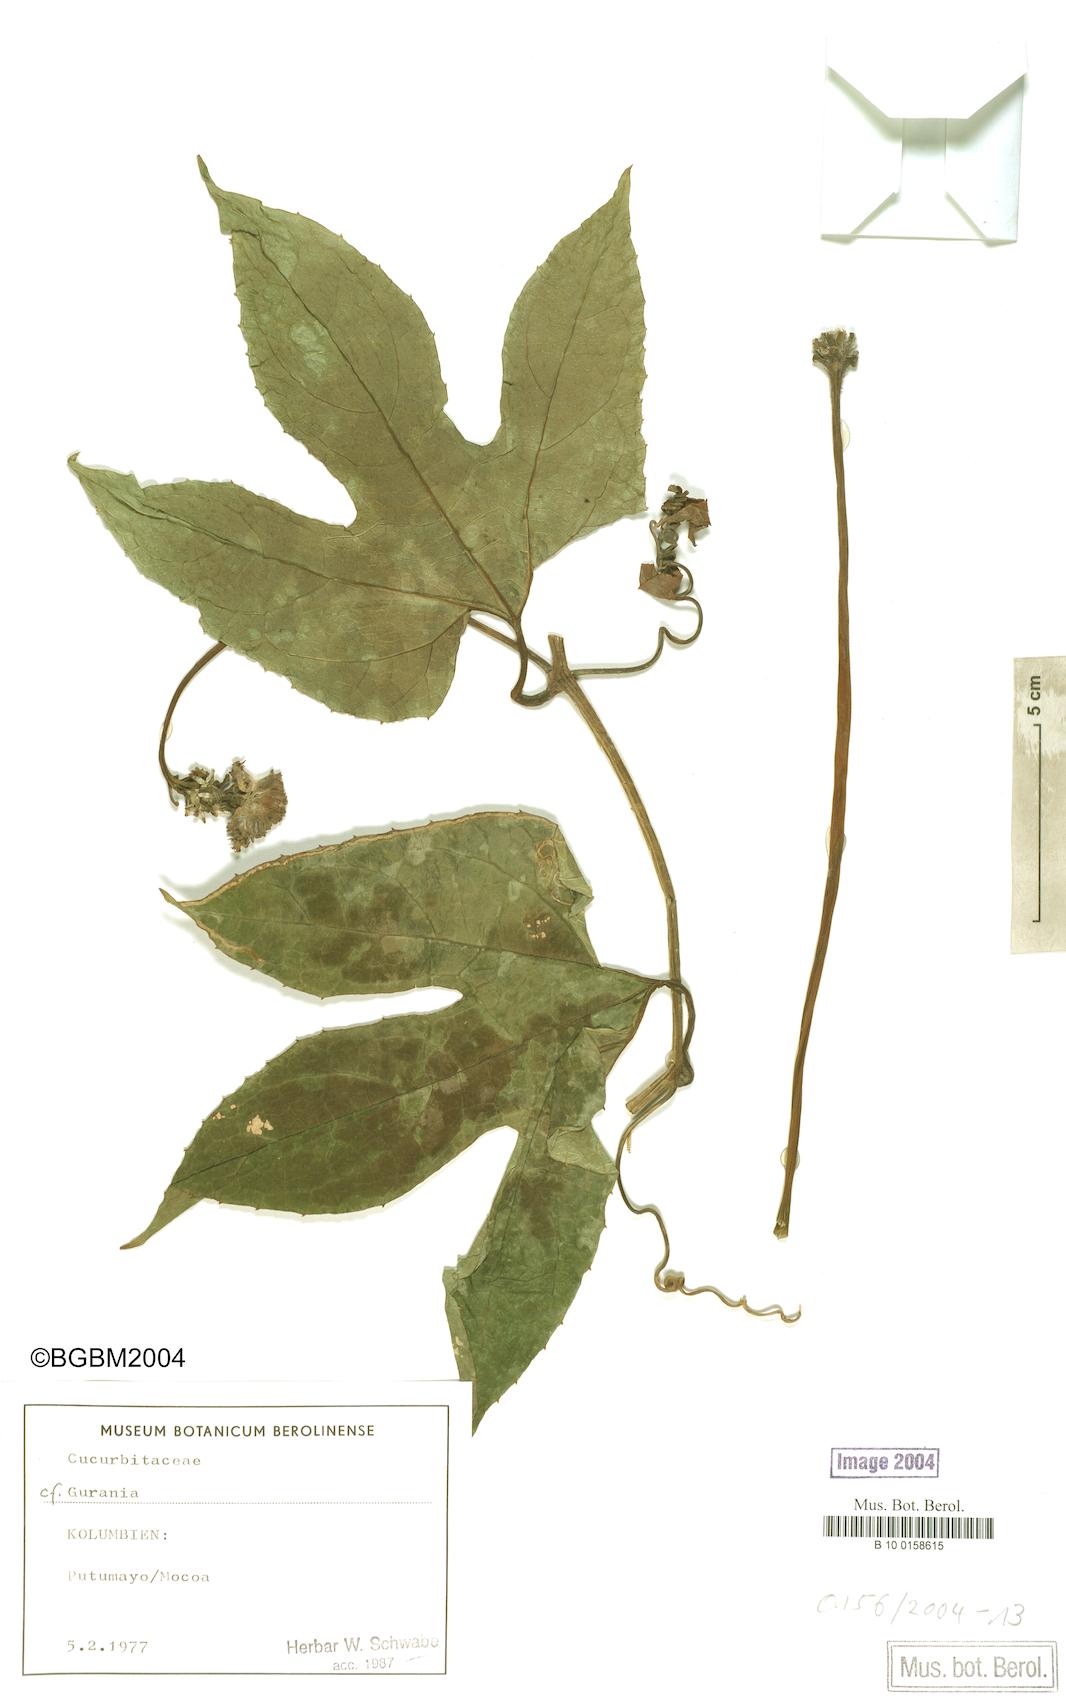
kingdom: Plantae
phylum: Tracheophyta
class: Magnoliopsida
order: Cucurbitales
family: Cucurbitaceae
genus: Gurania
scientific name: Gurania
